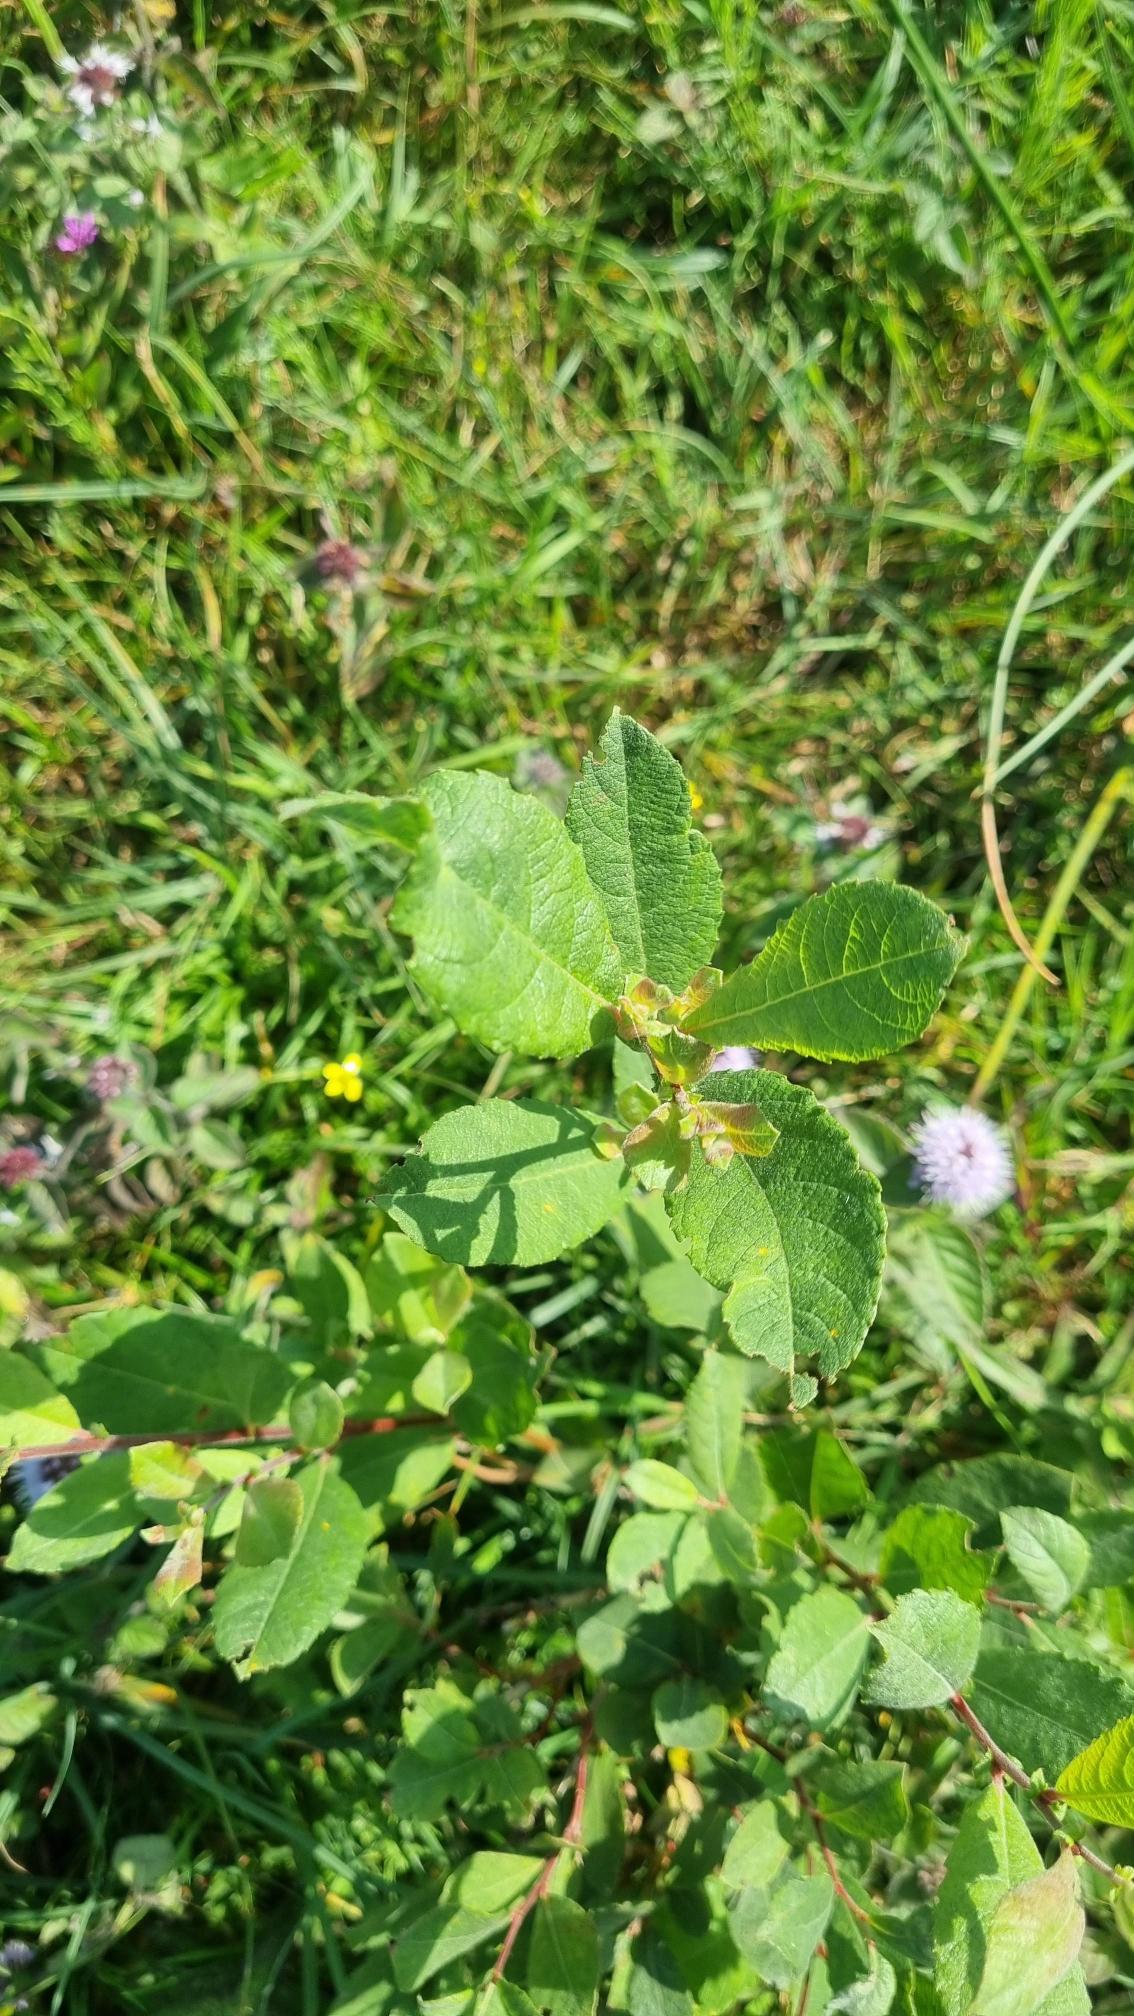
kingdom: Plantae
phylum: Tracheophyta
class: Magnoliopsida
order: Malpighiales
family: Salicaceae
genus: Salix
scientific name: Salix
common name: Pileslægten
